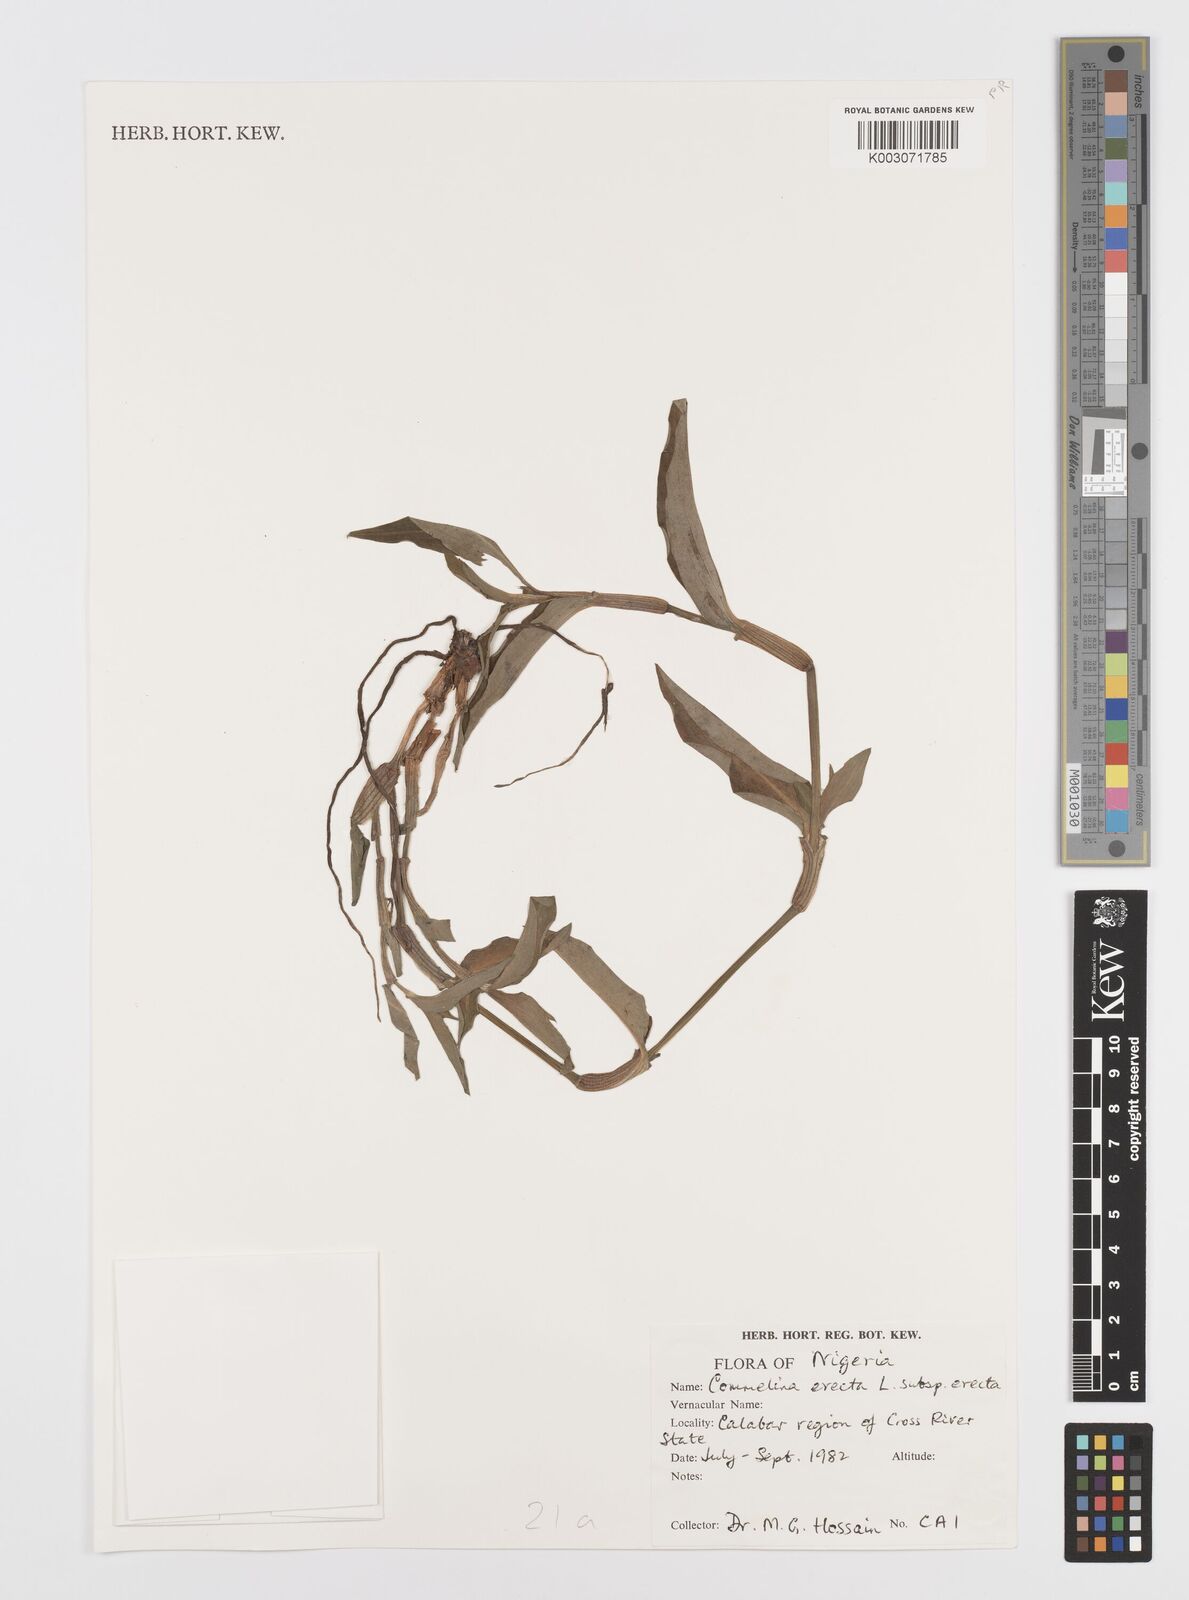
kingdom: Plantae
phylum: Tracheophyta
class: Liliopsida
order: Commelinales
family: Commelinaceae
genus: Commelina
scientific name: Commelina erecta
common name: Blousel blommetjie
